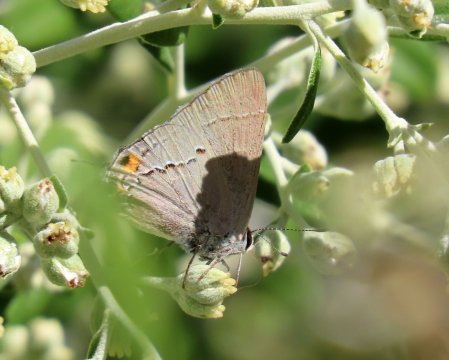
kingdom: Animalia
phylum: Arthropoda
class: Insecta
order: Lepidoptera
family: Lycaenidae
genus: Strymon
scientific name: Strymon melinus
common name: Gray Hairstreak
